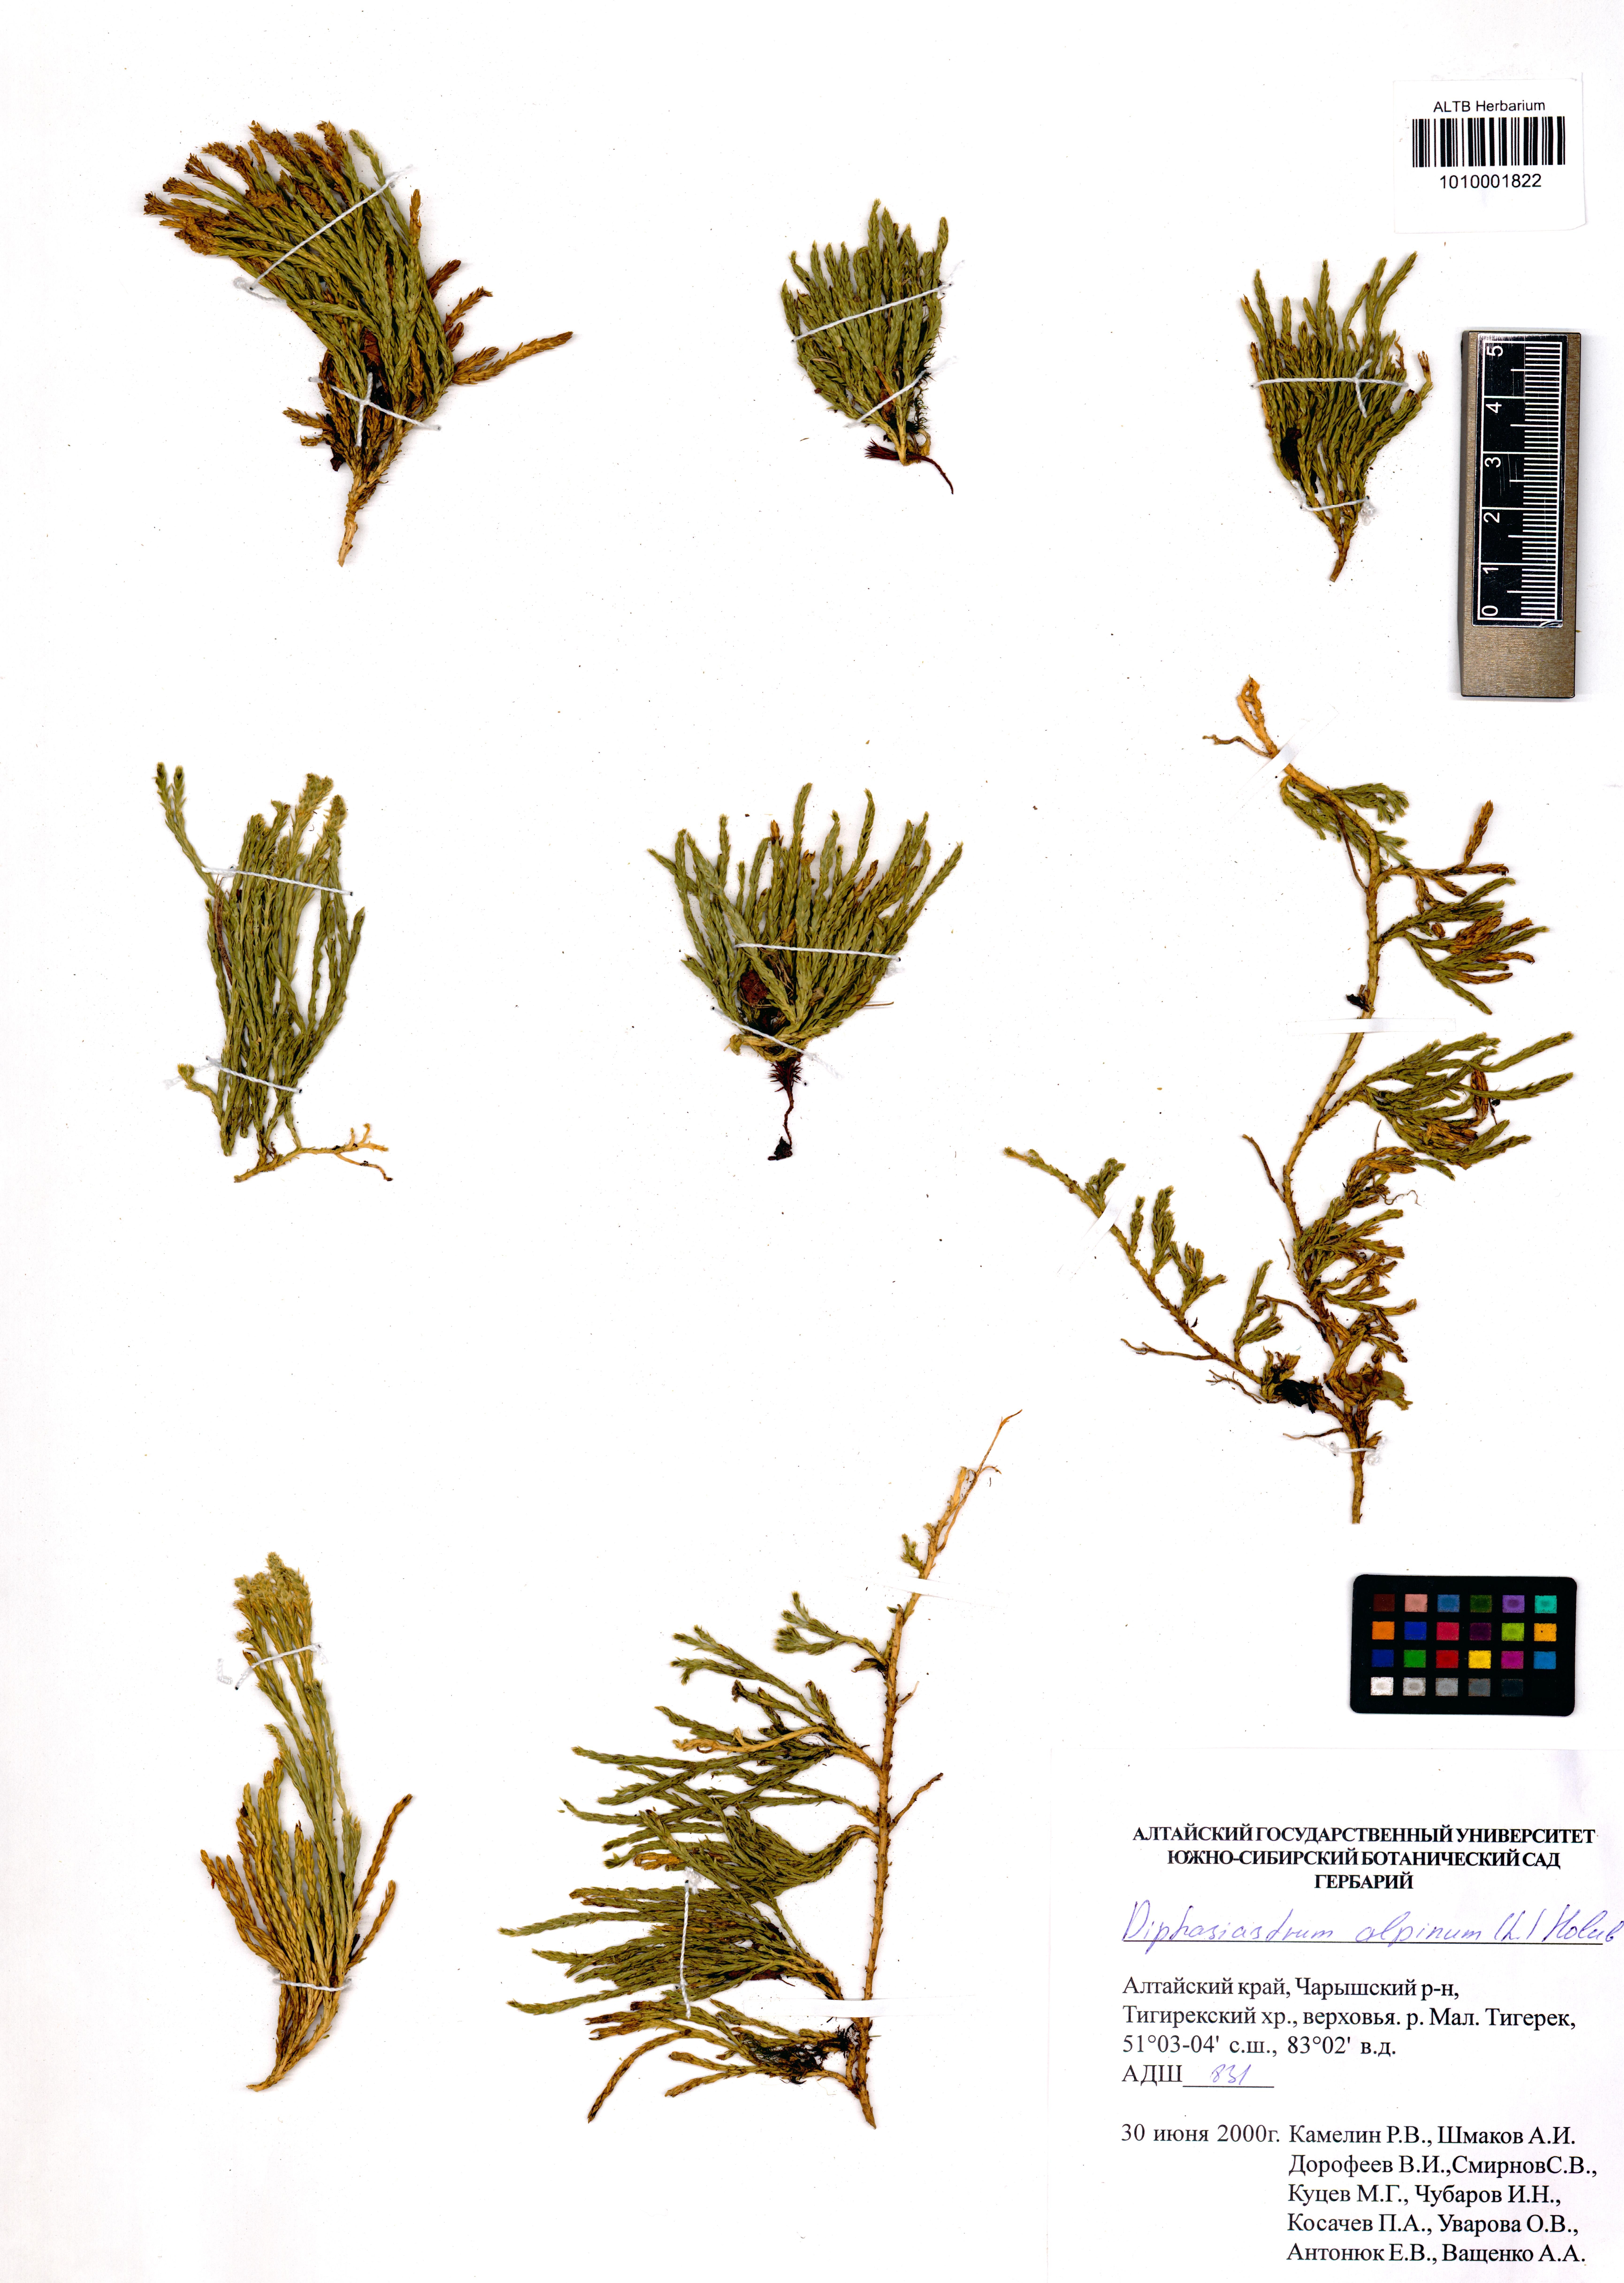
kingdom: Plantae
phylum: Tracheophyta
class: Lycopodiopsida
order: Lycopodiales
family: Lycopodiaceae
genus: Diphasiastrum
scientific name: Diphasiastrum alpinum
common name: Alpine clubmoss
